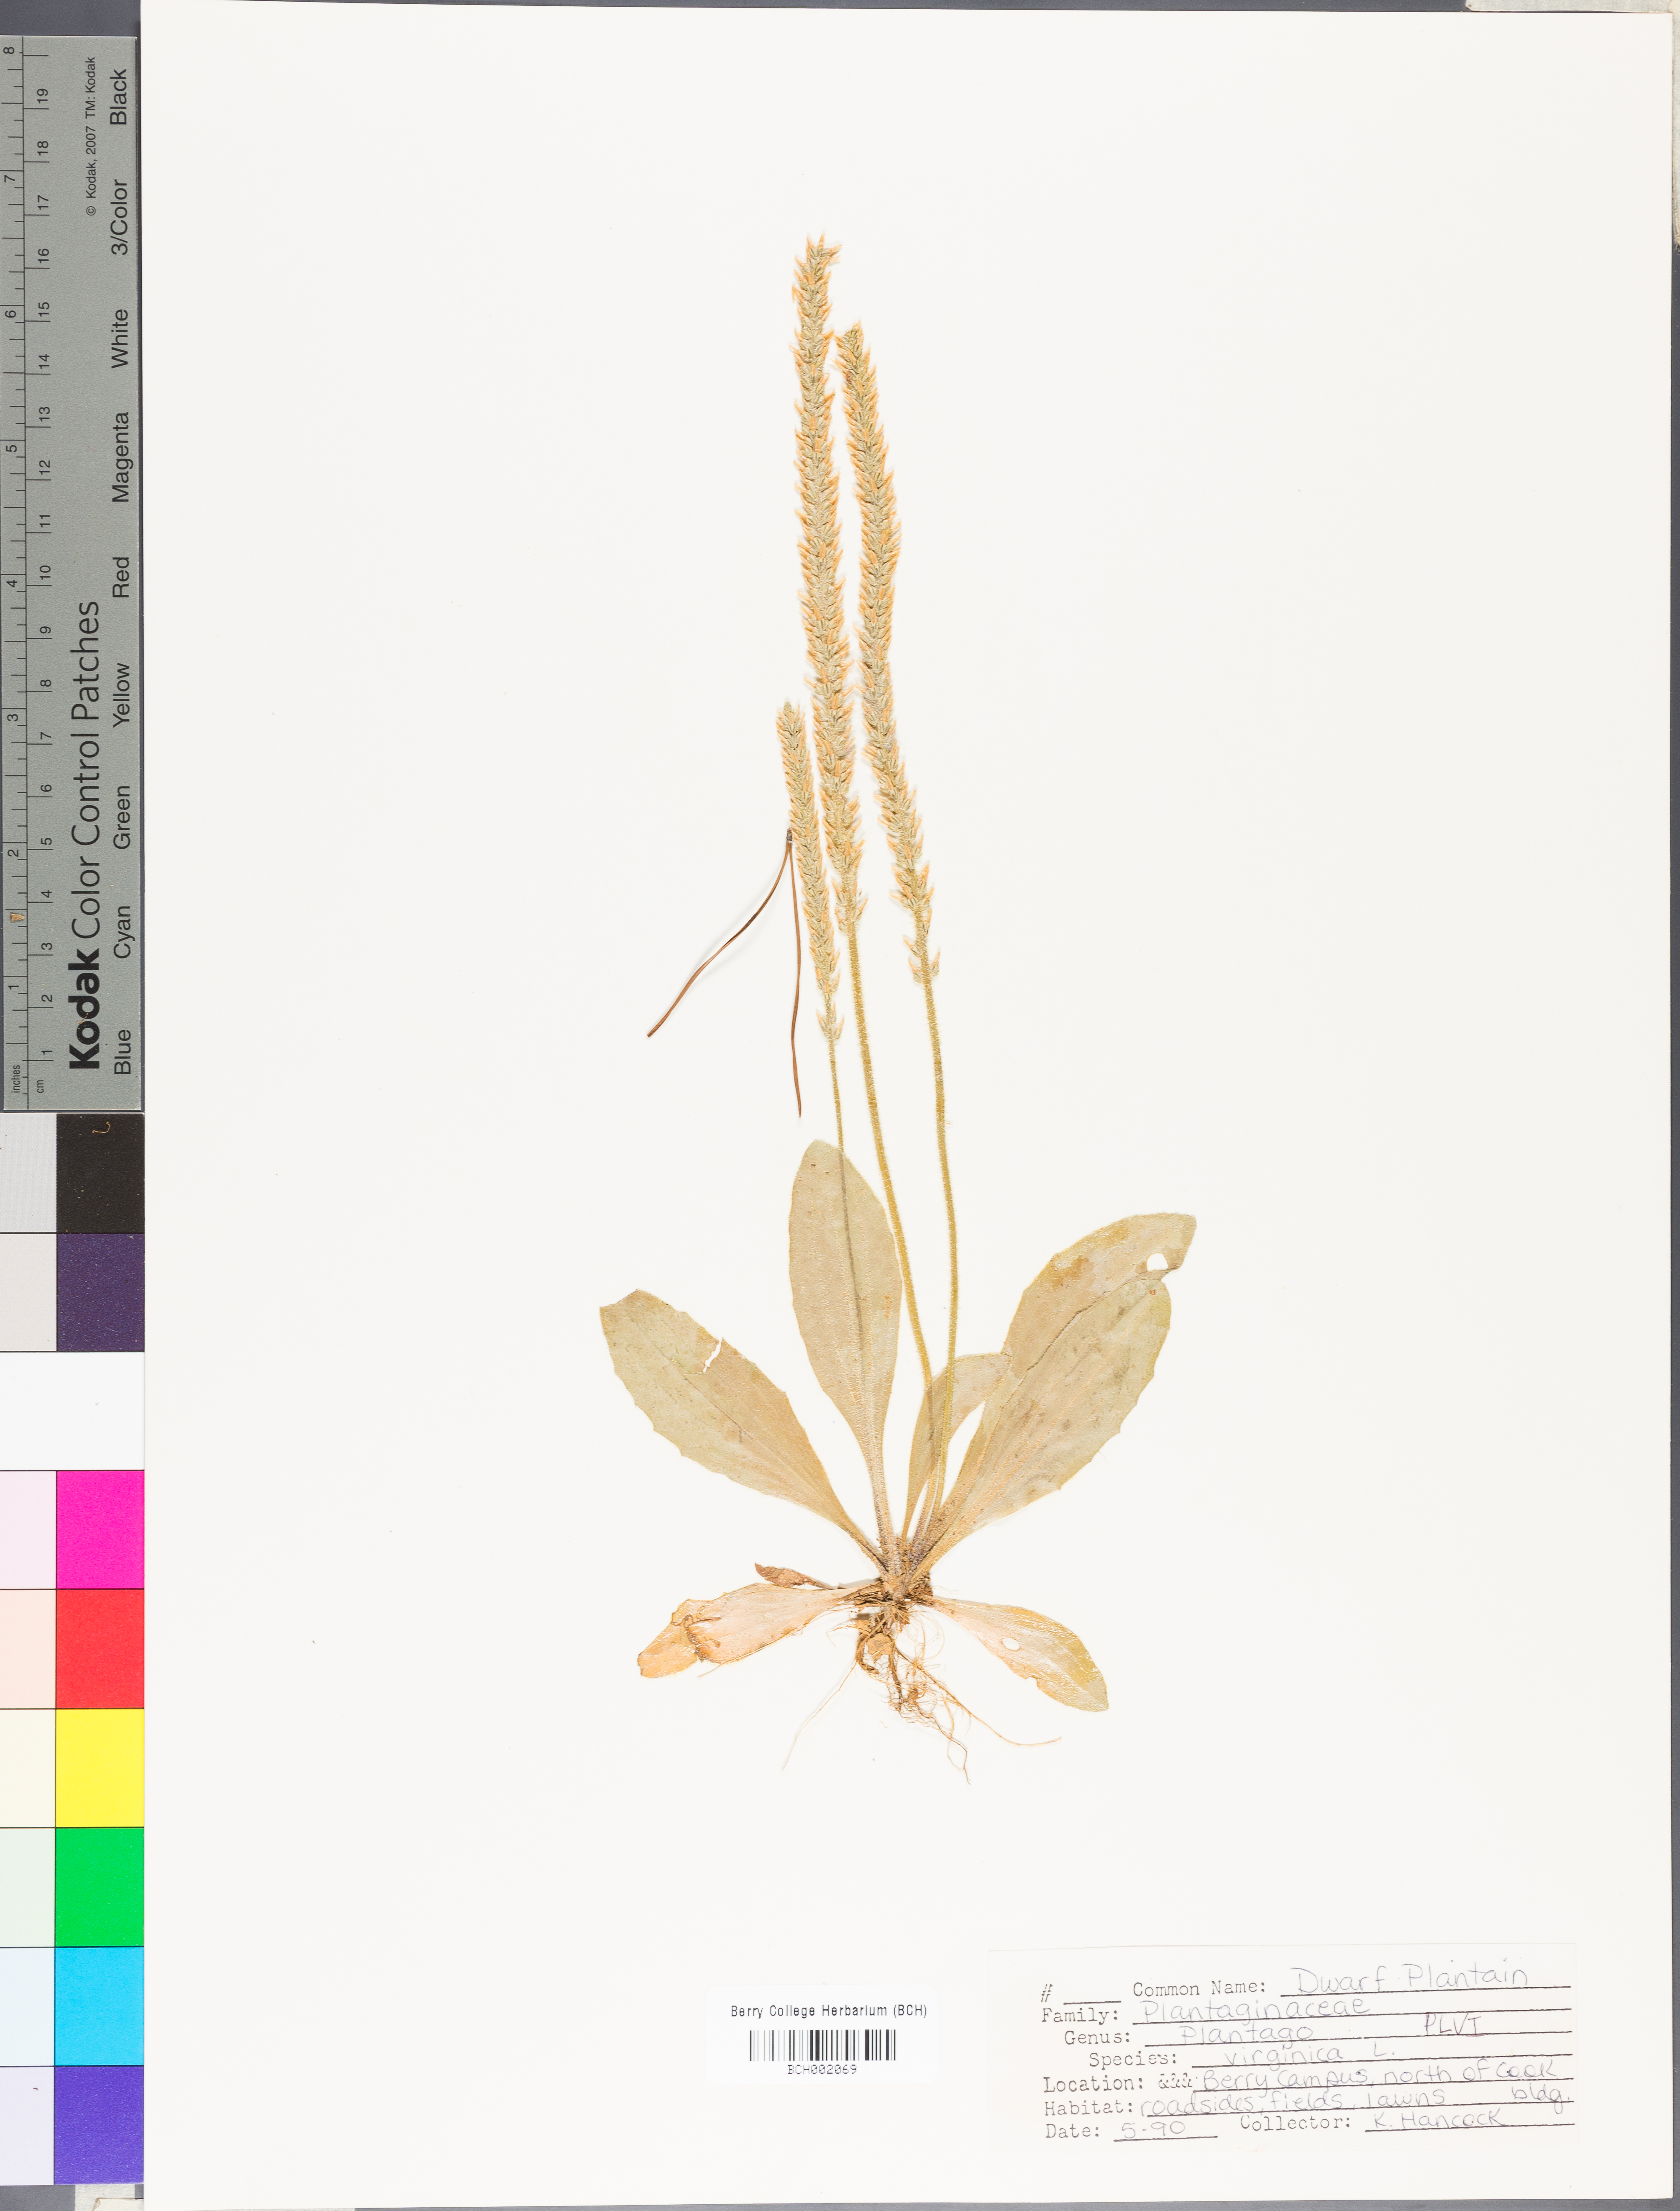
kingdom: Plantae
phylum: Tracheophyta
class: Magnoliopsida
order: Lamiales
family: Plantaginaceae
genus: Plantago
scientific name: Plantago virginica
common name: Hoary plantain
